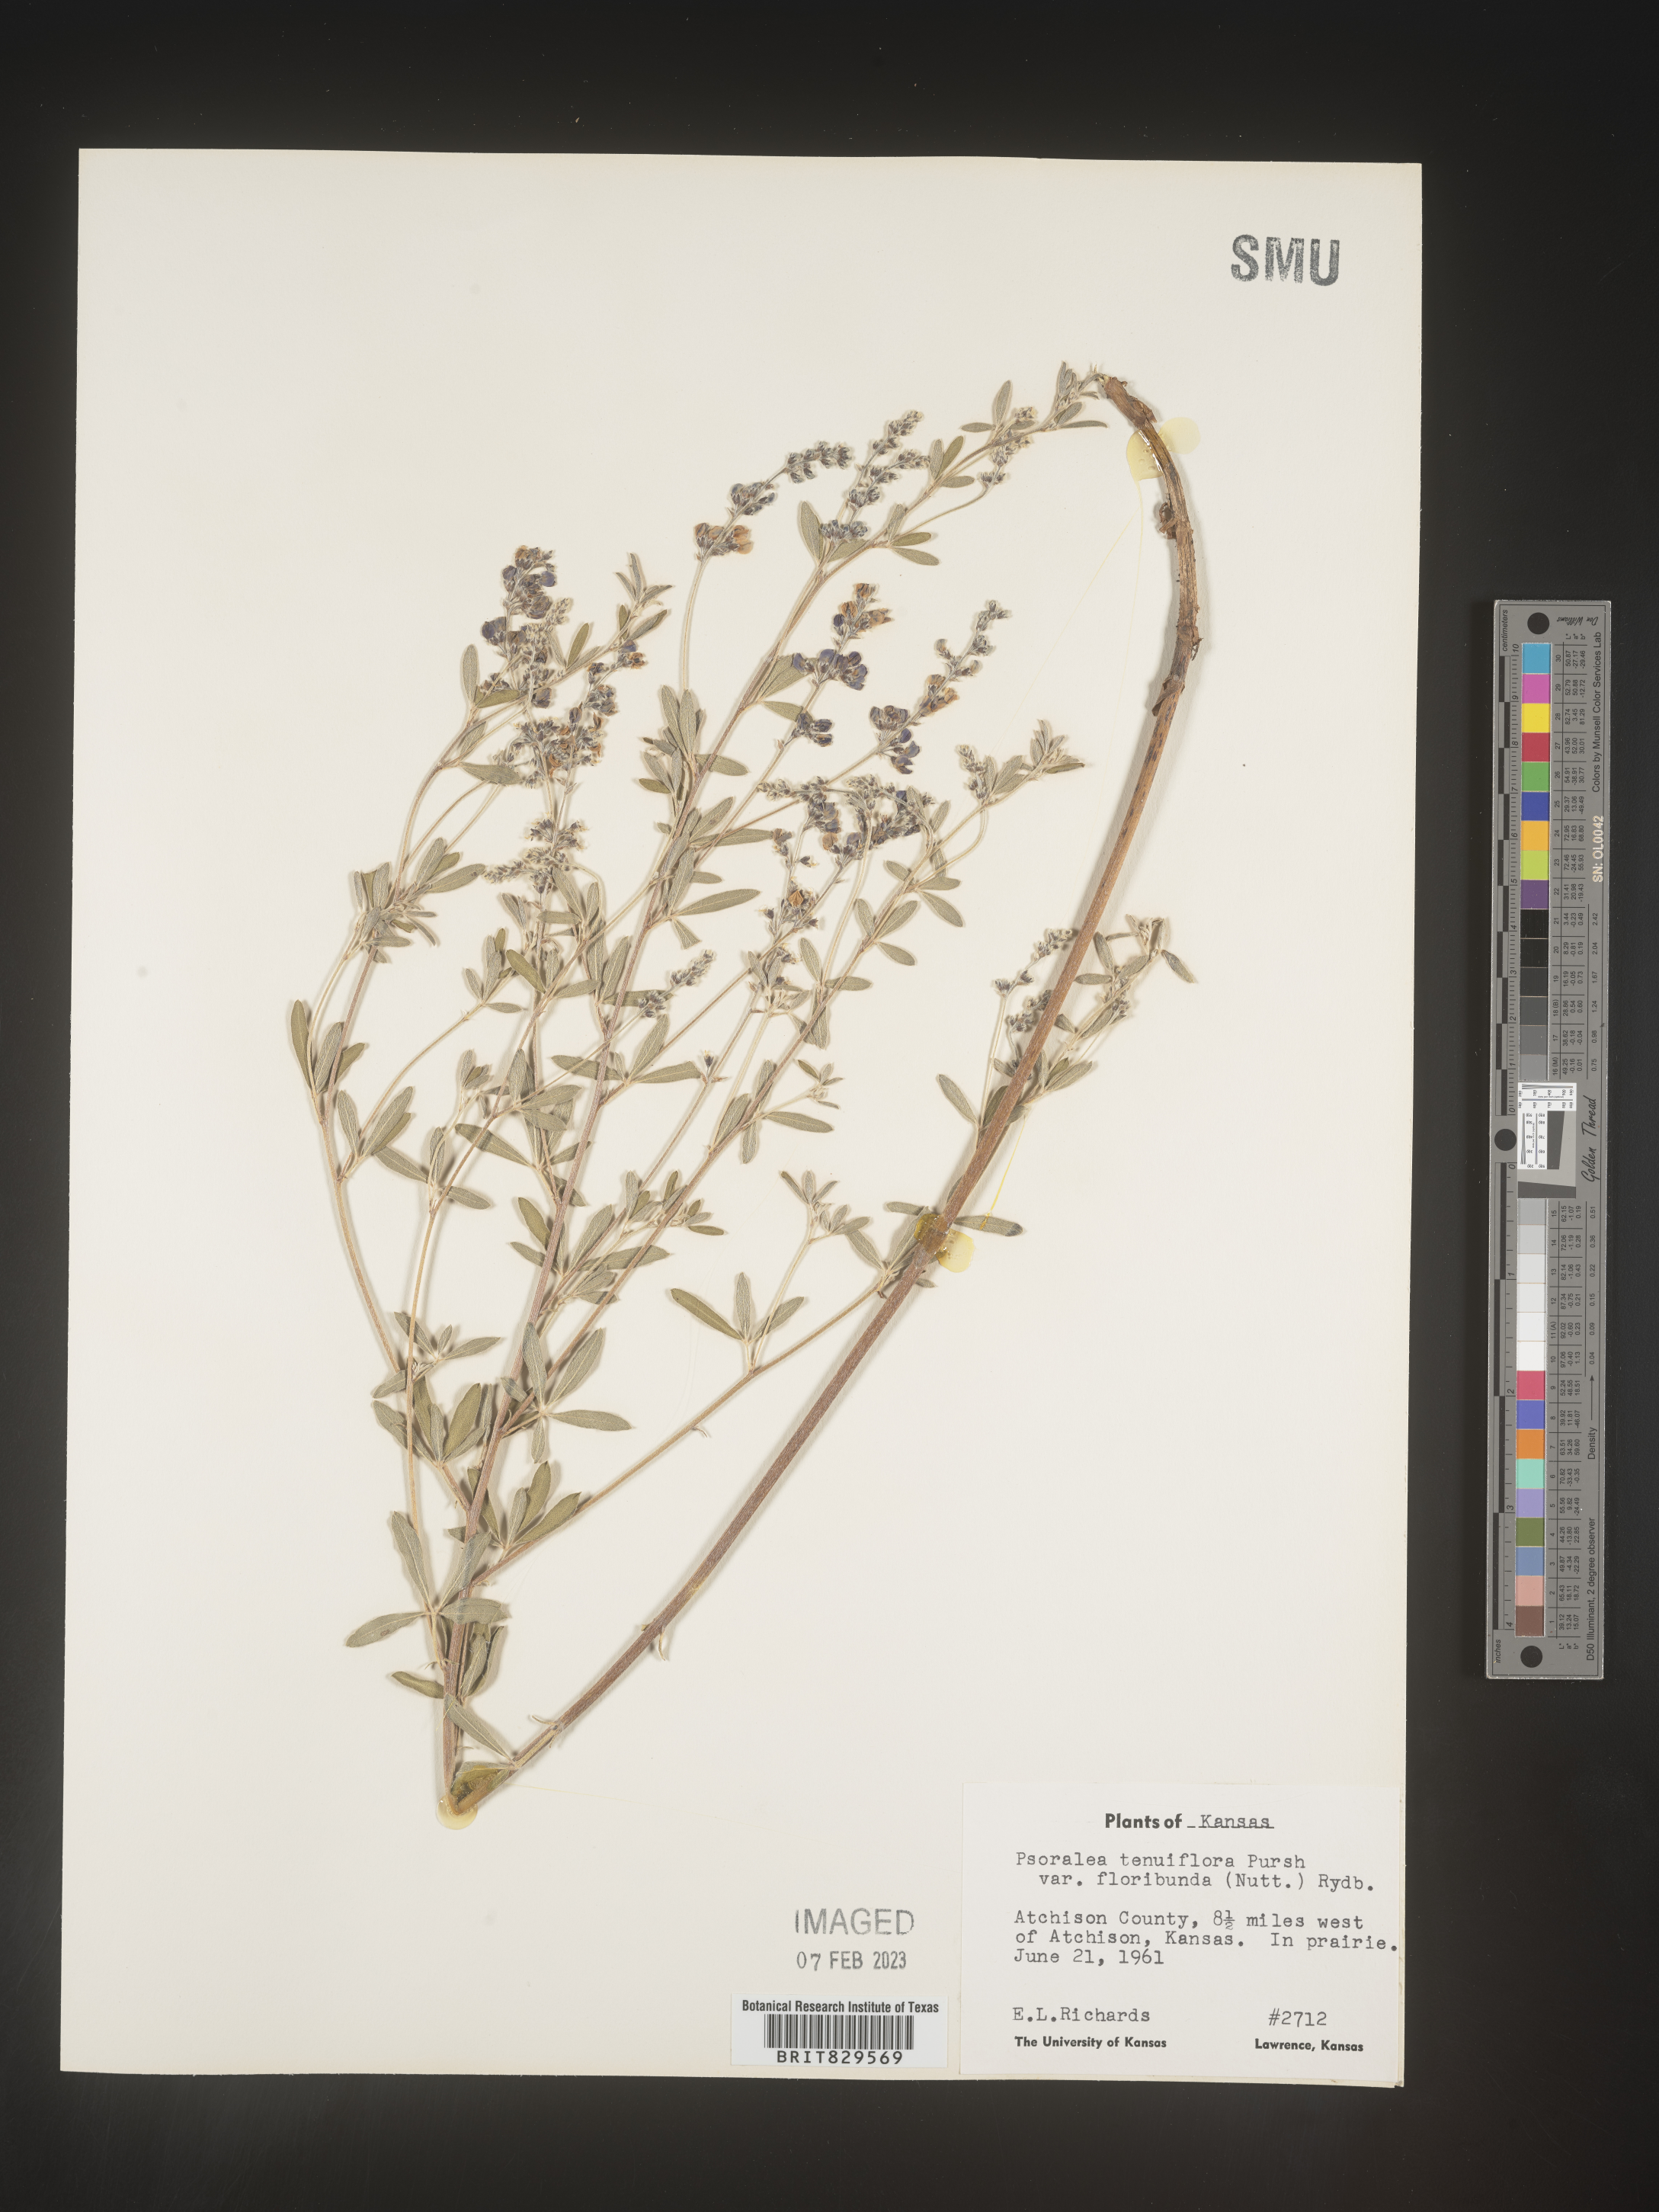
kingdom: Plantae
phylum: Tracheophyta
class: Magnoliopsida
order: Fabales
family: Fabaceae
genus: Pediomelum
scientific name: Pediomelum tenuiflorum
